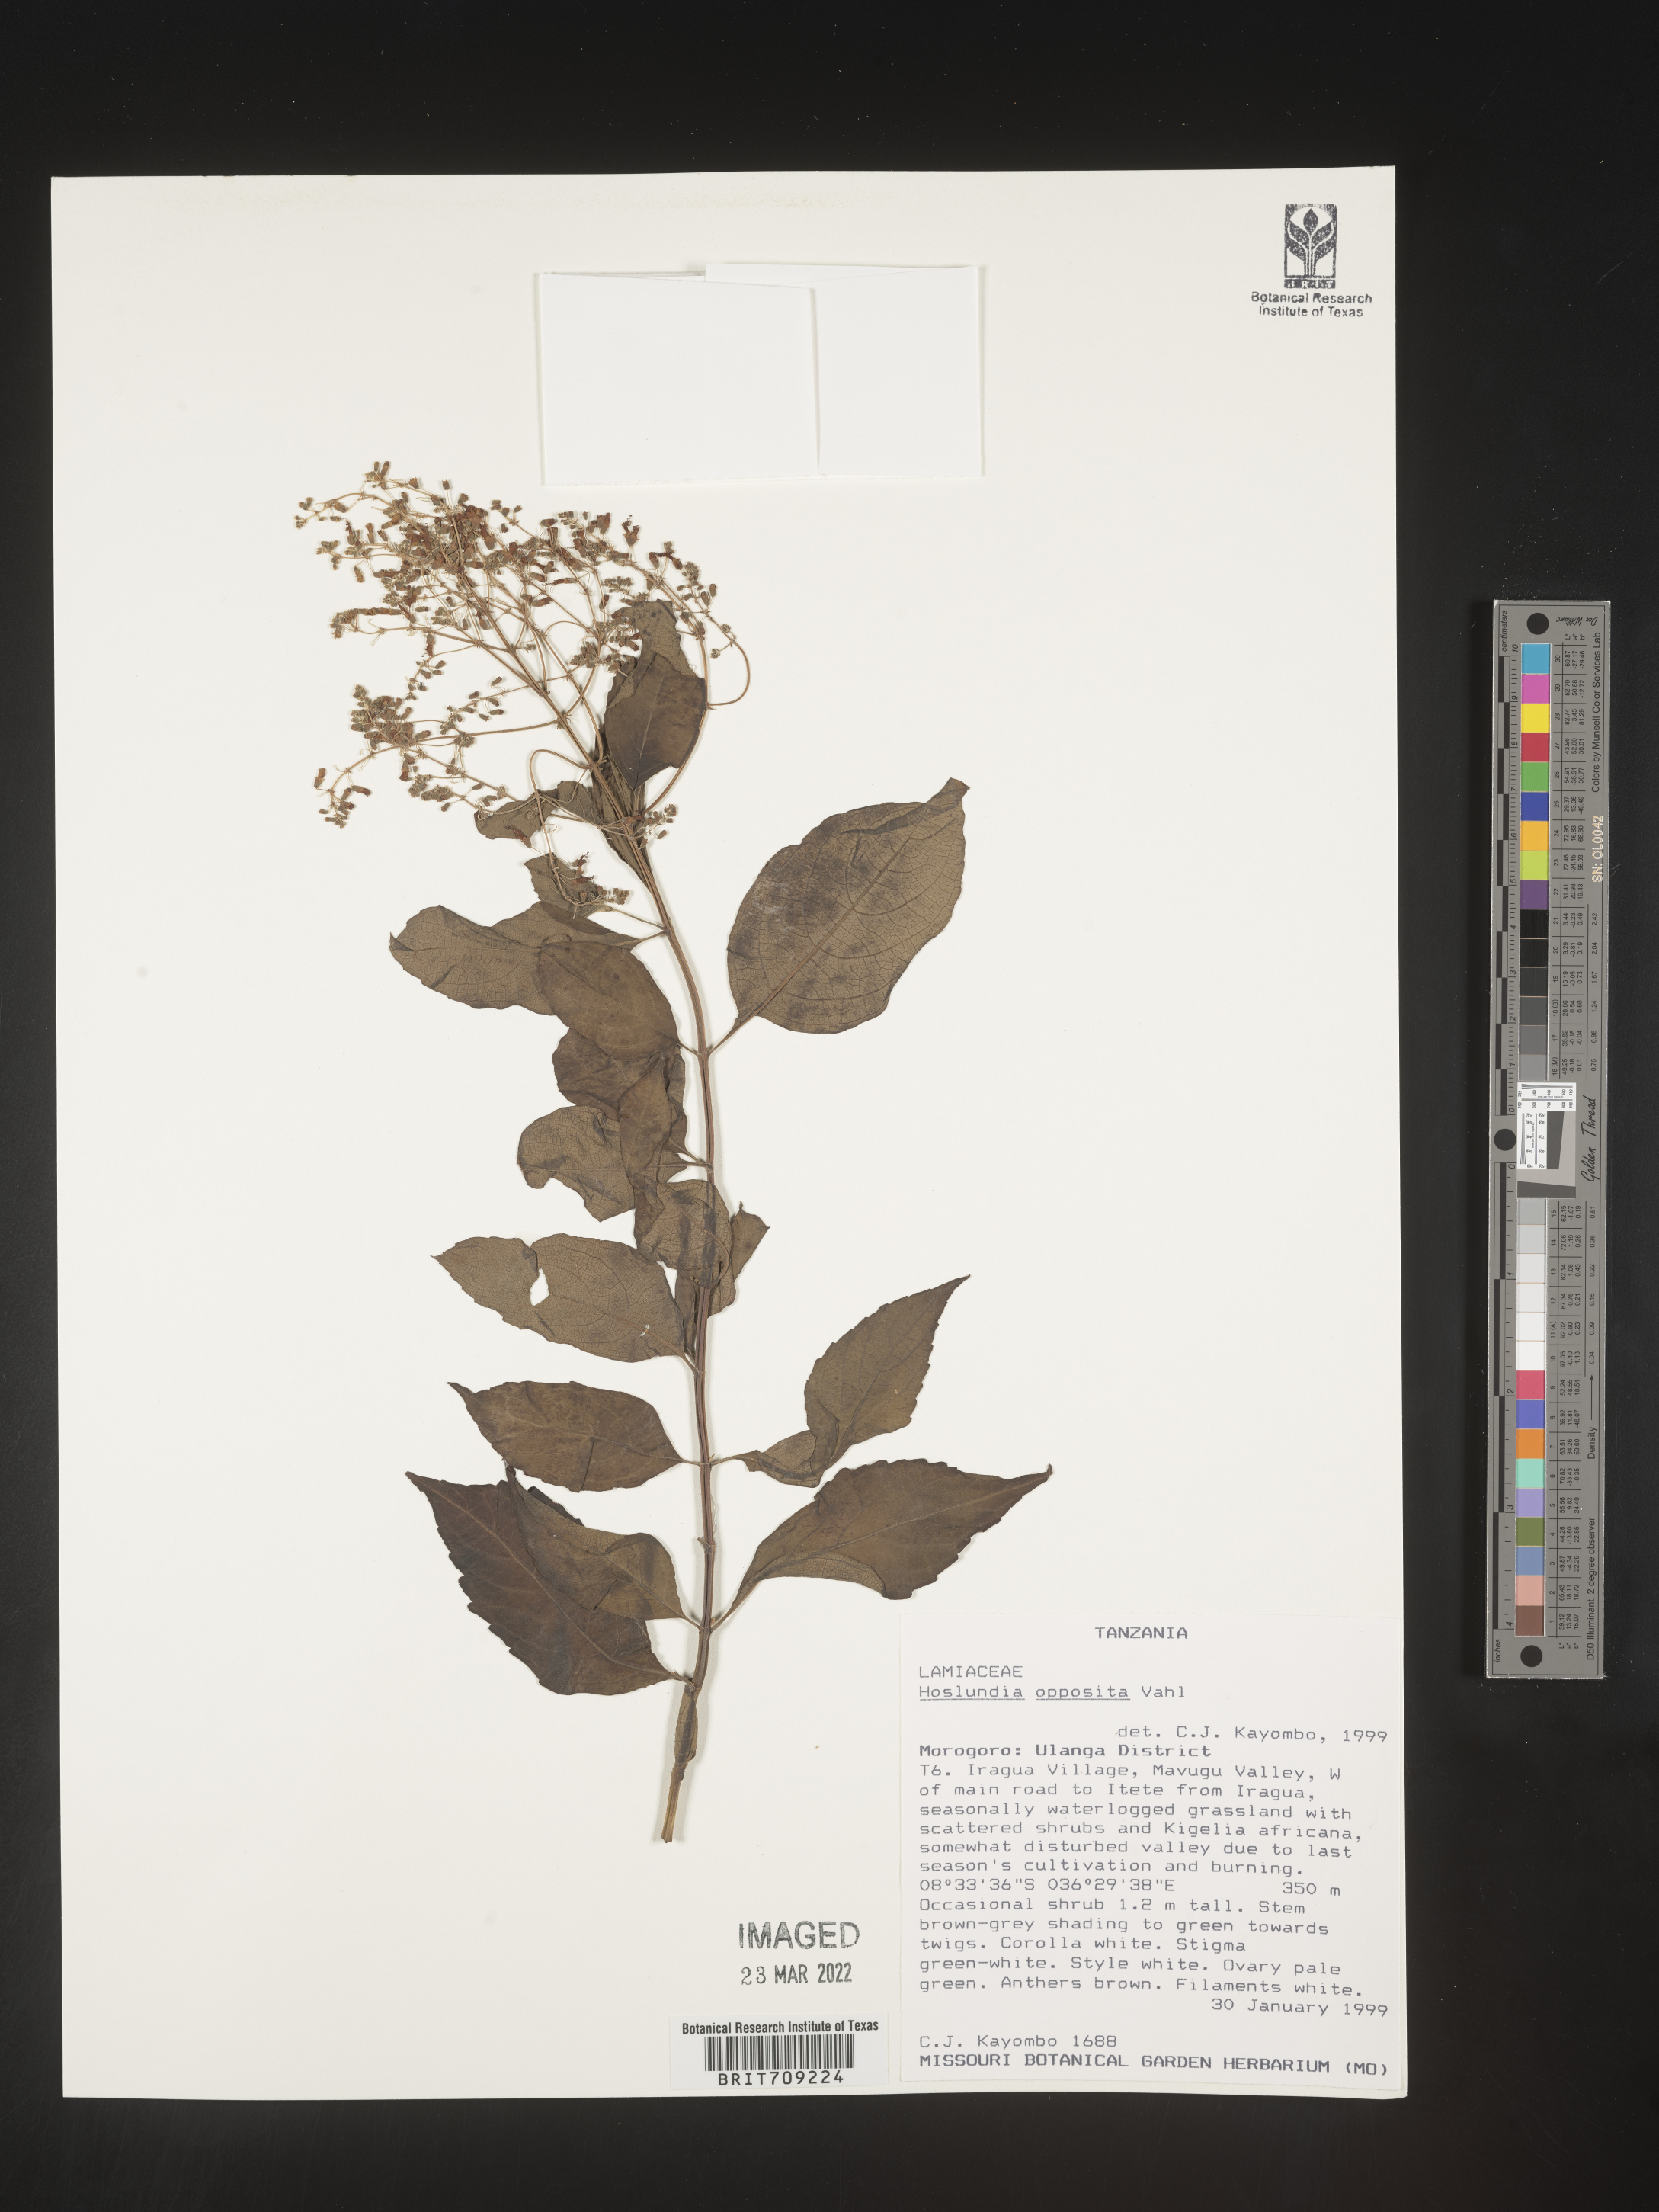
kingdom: Plantae
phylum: Tracheophyta
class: Magnoliopsida
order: Lamiales
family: Lamiaceae
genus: Hoslundia
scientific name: Hoslundia opposita
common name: Kamyuye
